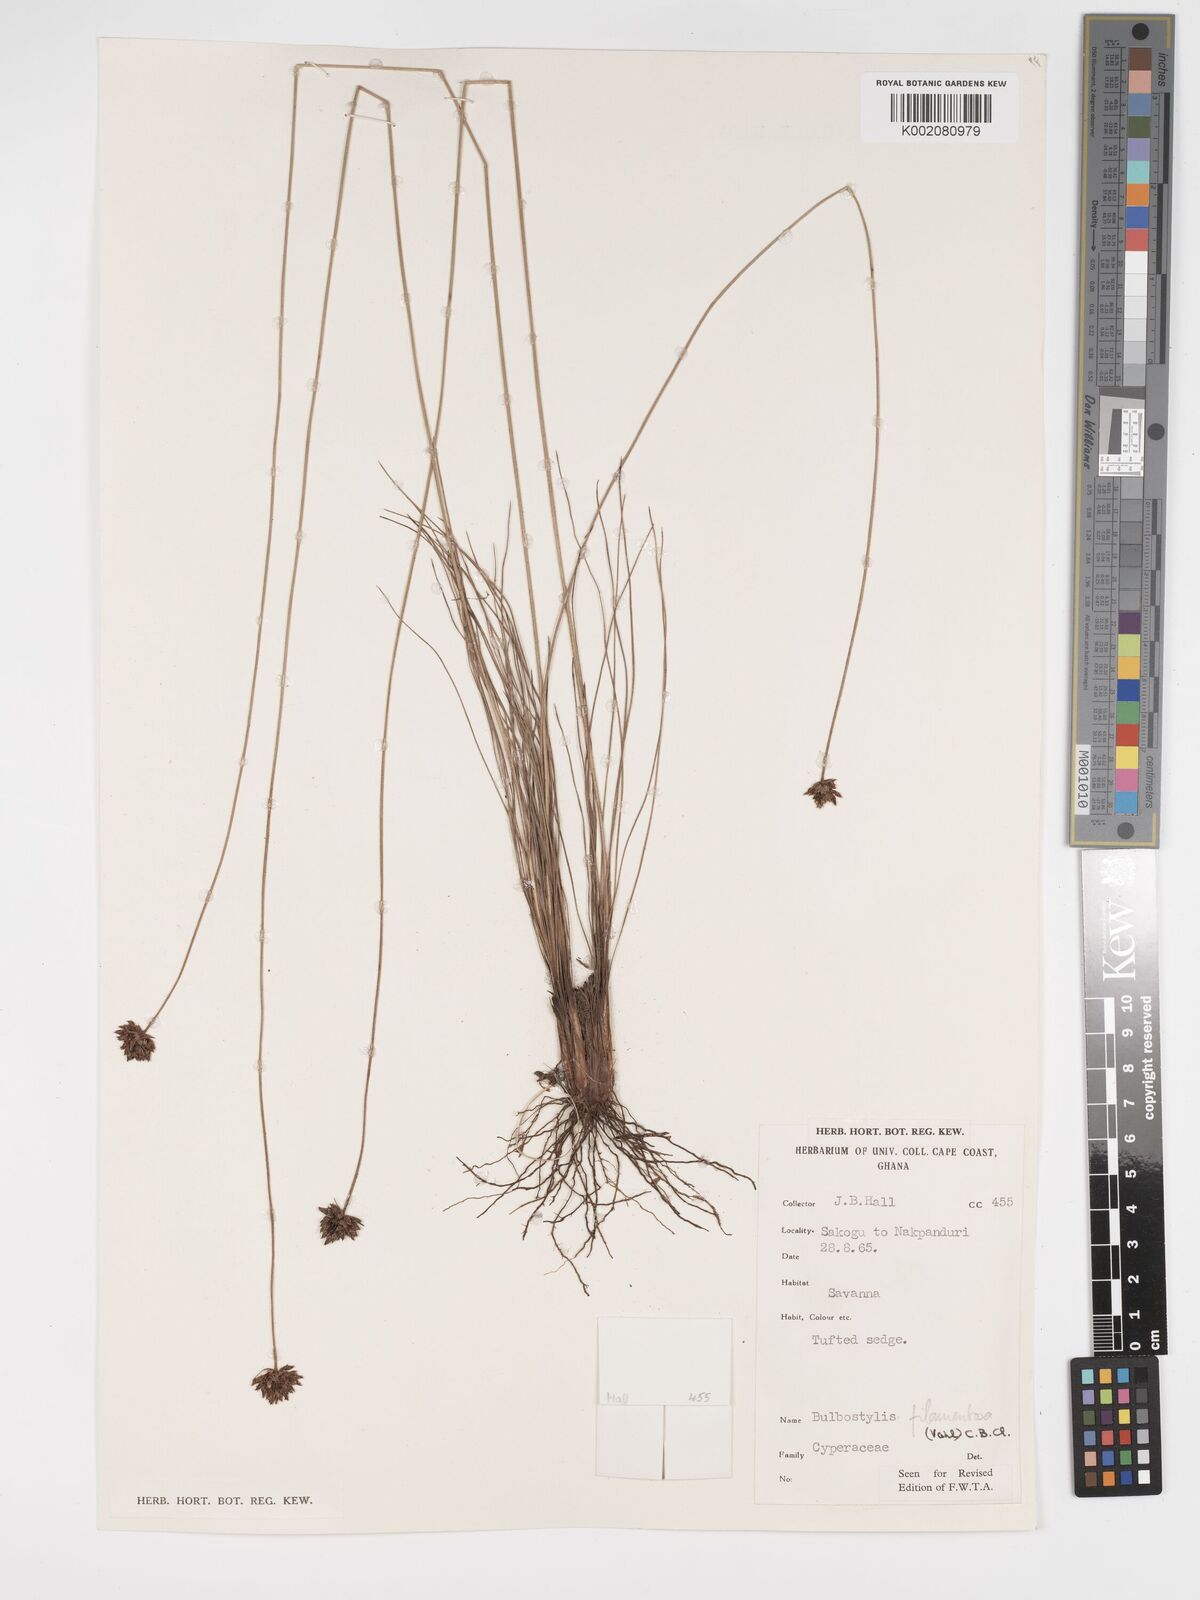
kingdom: Plantae
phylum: Tracheophyta
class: Liliopsida
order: Poales
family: Cyperaceae
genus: Bulbostylis
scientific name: Bulbostylis filamentosa
